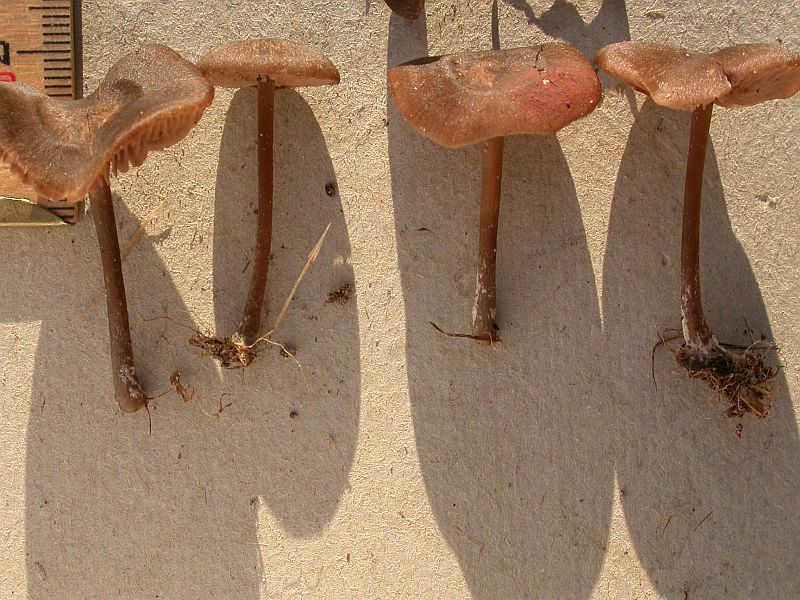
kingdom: Fungi
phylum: Basidiomycota
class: Agaricomycetes
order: Agaricales
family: Entolomataceae
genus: Entoloma
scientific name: Entoloma clandestinum
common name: tykbladet rødblad
